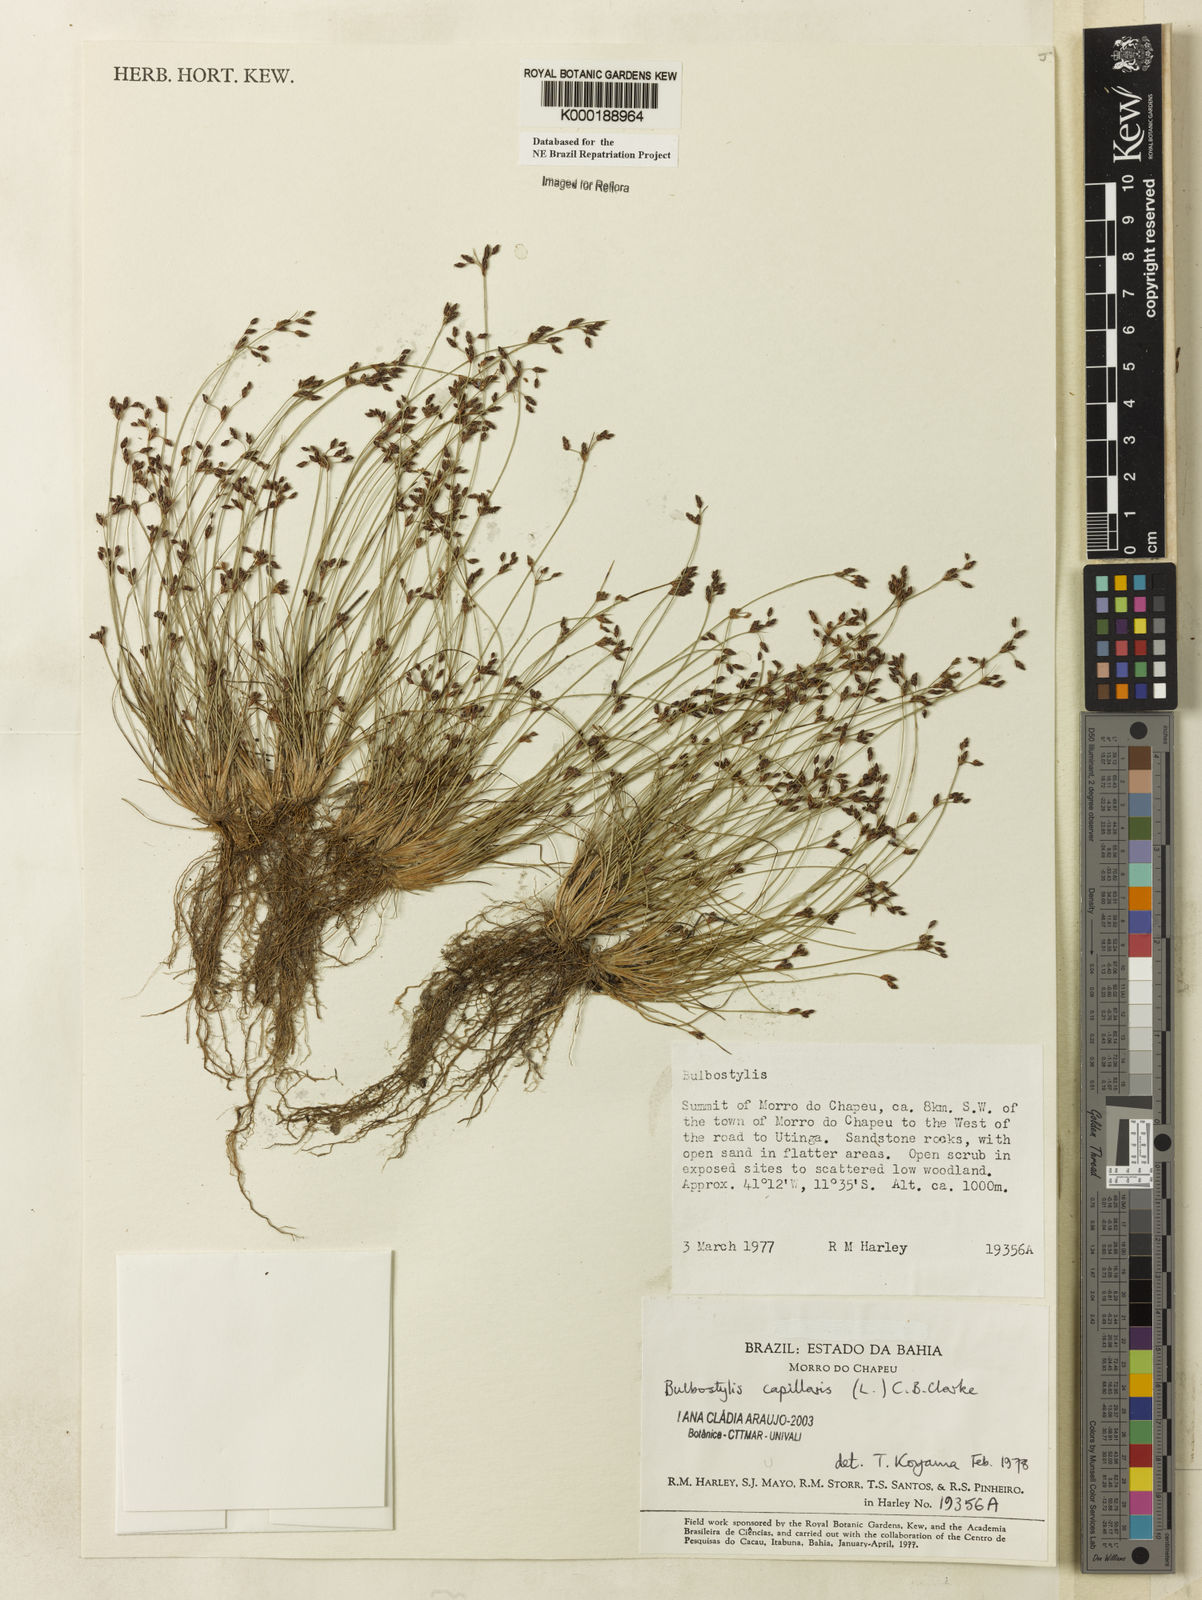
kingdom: Plantae
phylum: Tracheophyta
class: Liliopsida
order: Poales
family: Cyperaceae
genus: Bulbostylis
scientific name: Bulbostylis capillaris
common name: Densetuft hairsedge
